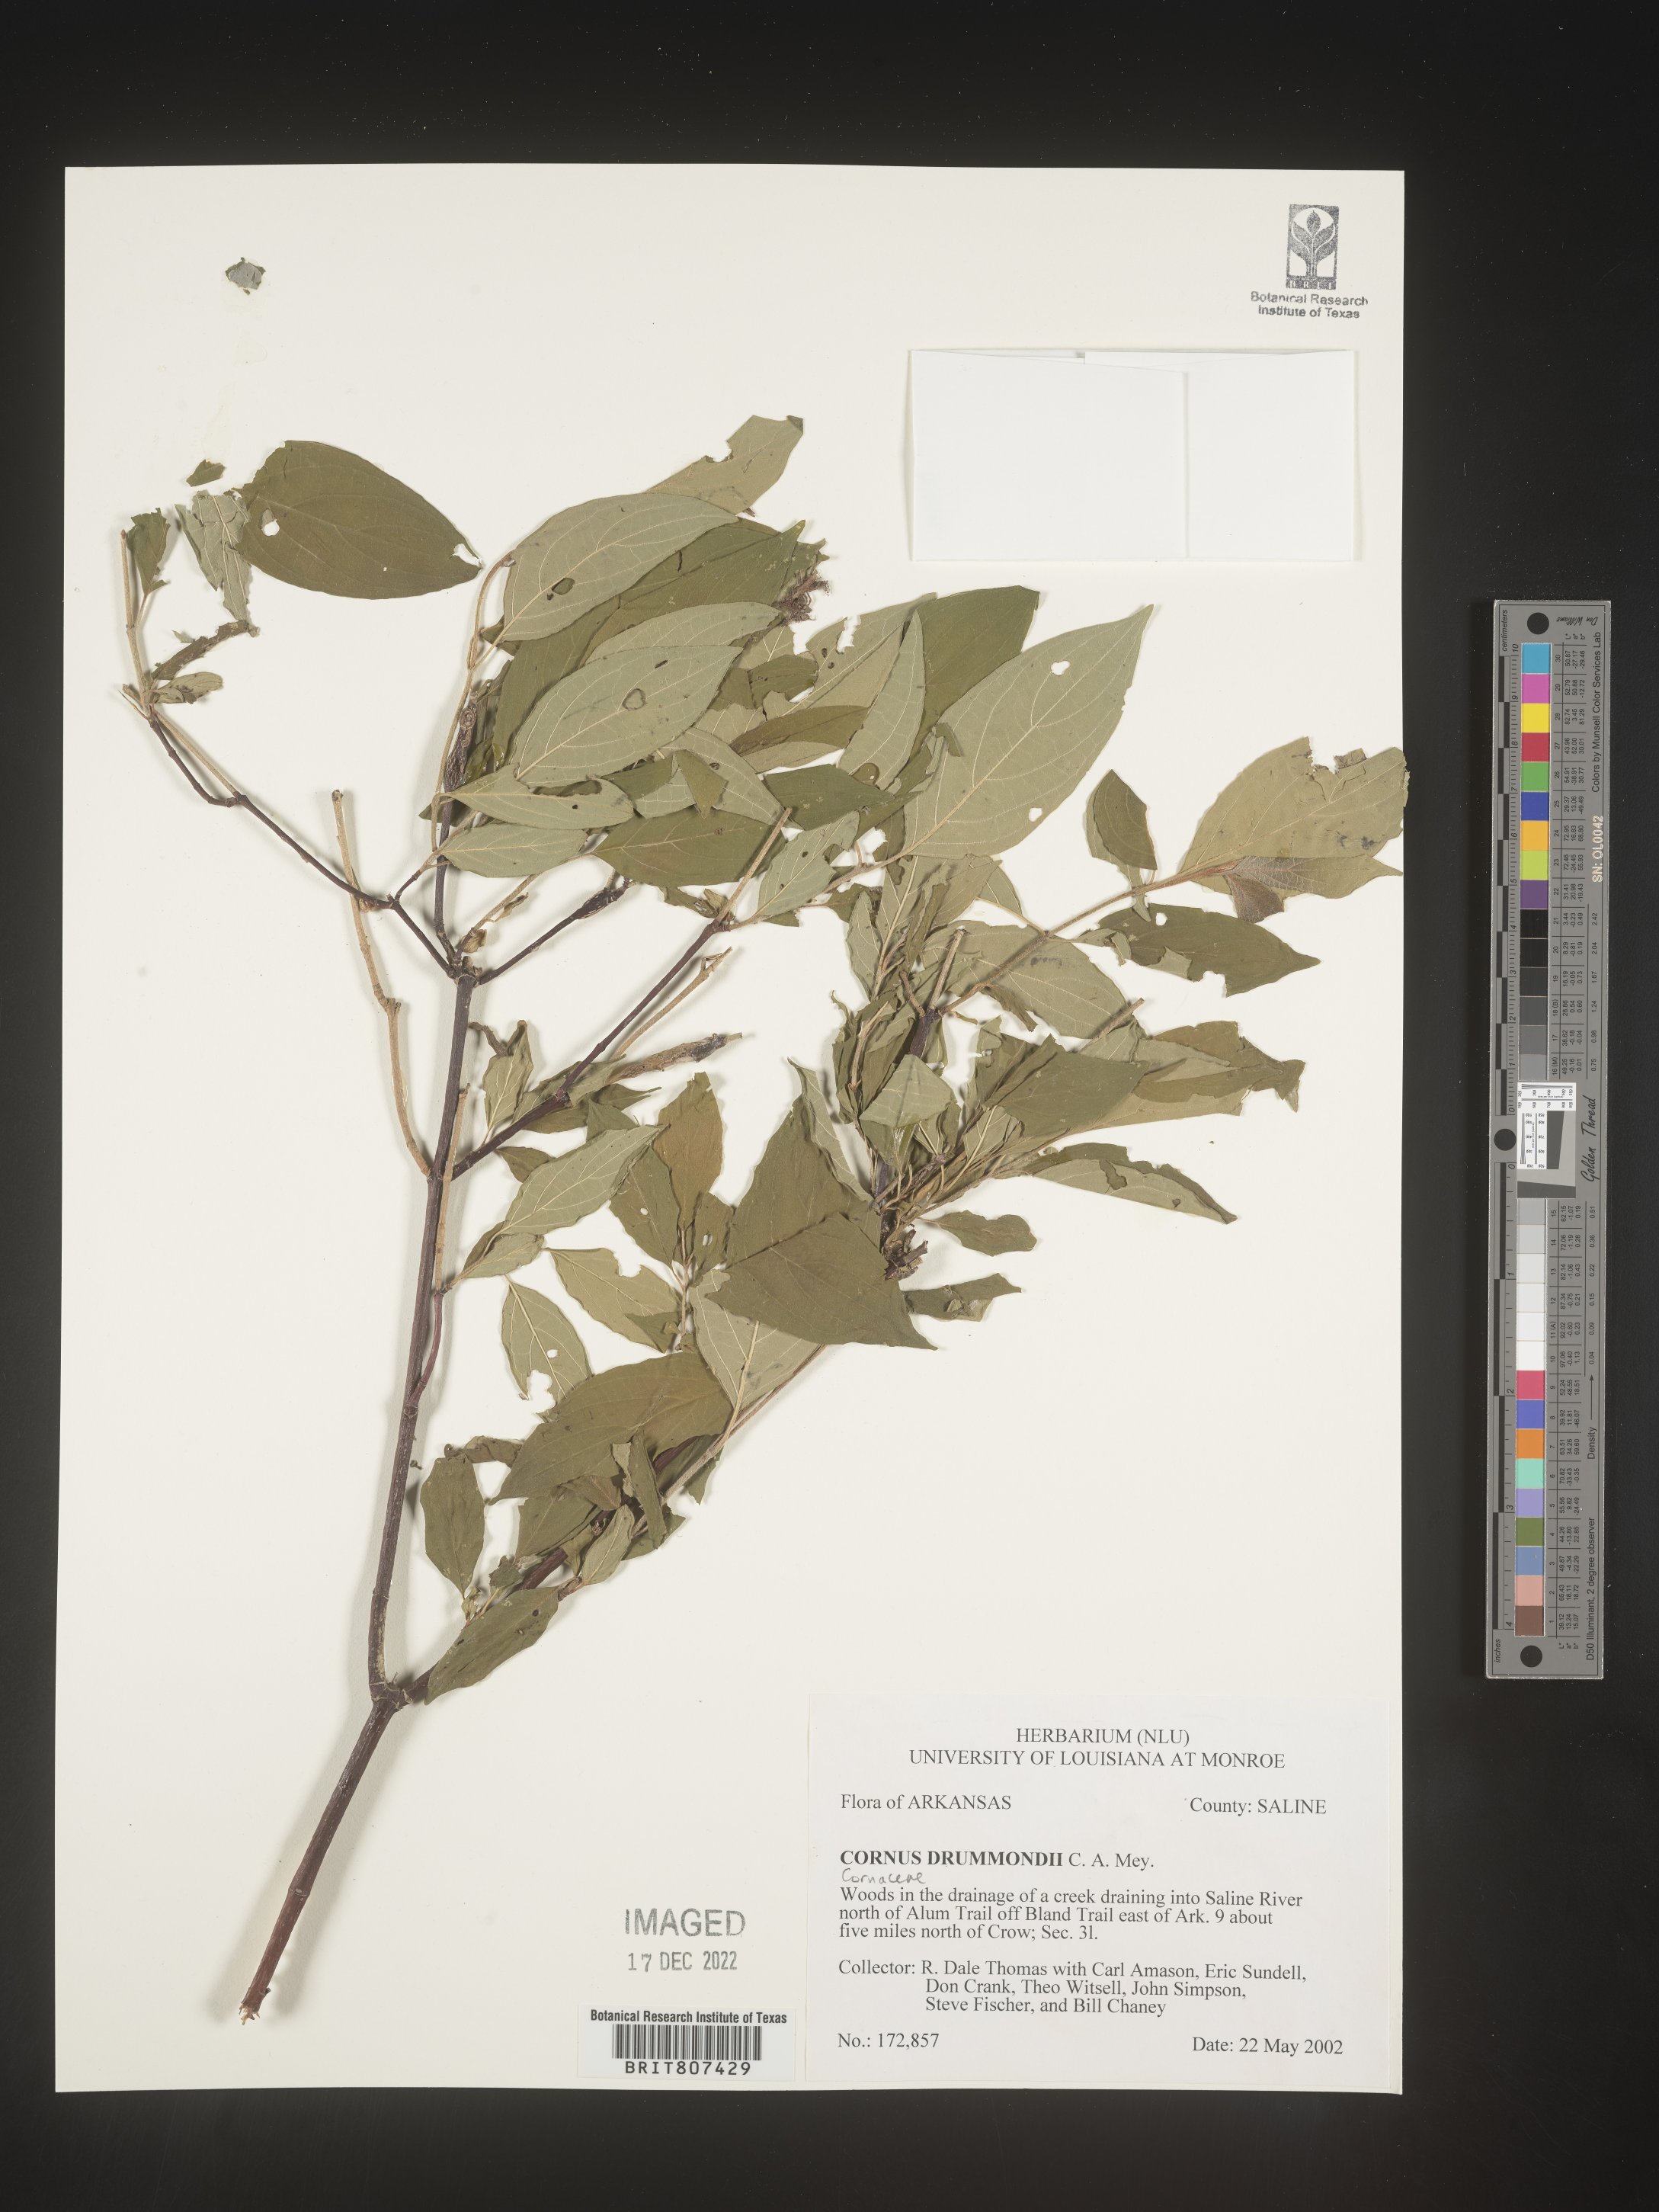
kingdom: Plantae
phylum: Tracheophyta
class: Magnoliopsida
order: Cornales
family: Cornaceae
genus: Cornus
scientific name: Cornus drummondii
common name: Rough-leaf dogwood
